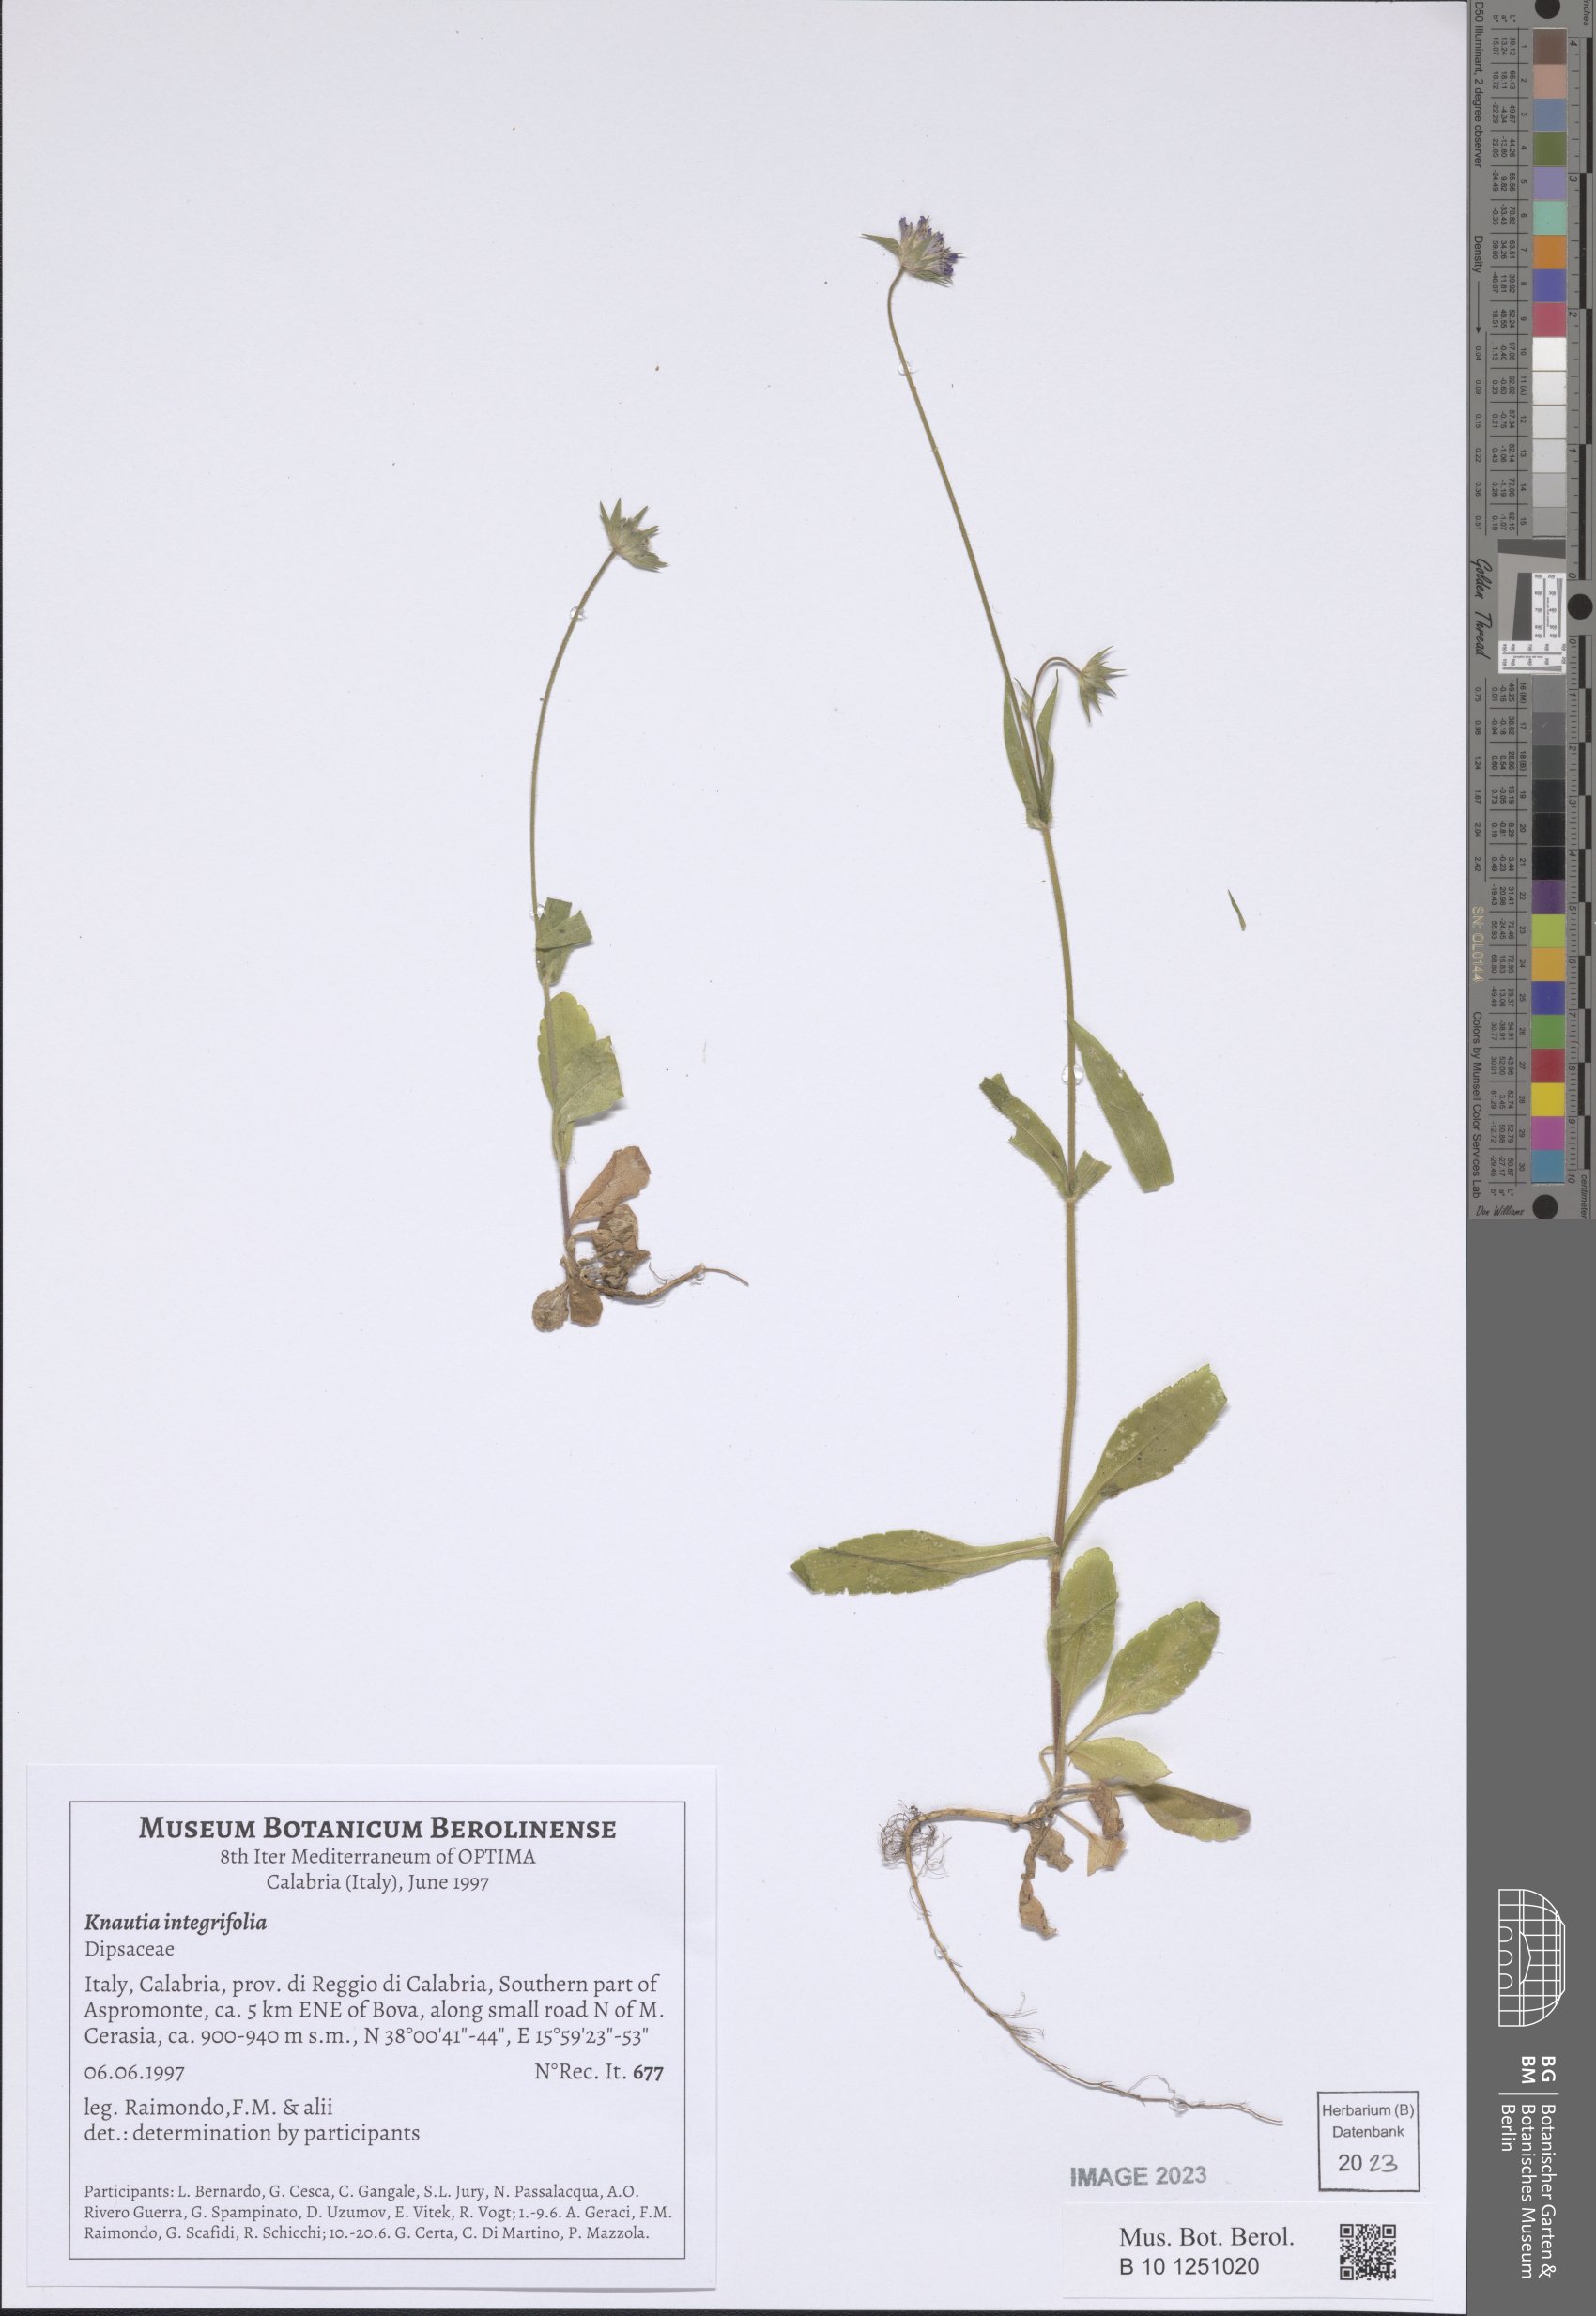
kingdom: Plantae
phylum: Tracheophyta
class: Magnoliopsida
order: Dipsacales
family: Caprifoliaceae
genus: Knautia
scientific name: Knautia integrifolia
